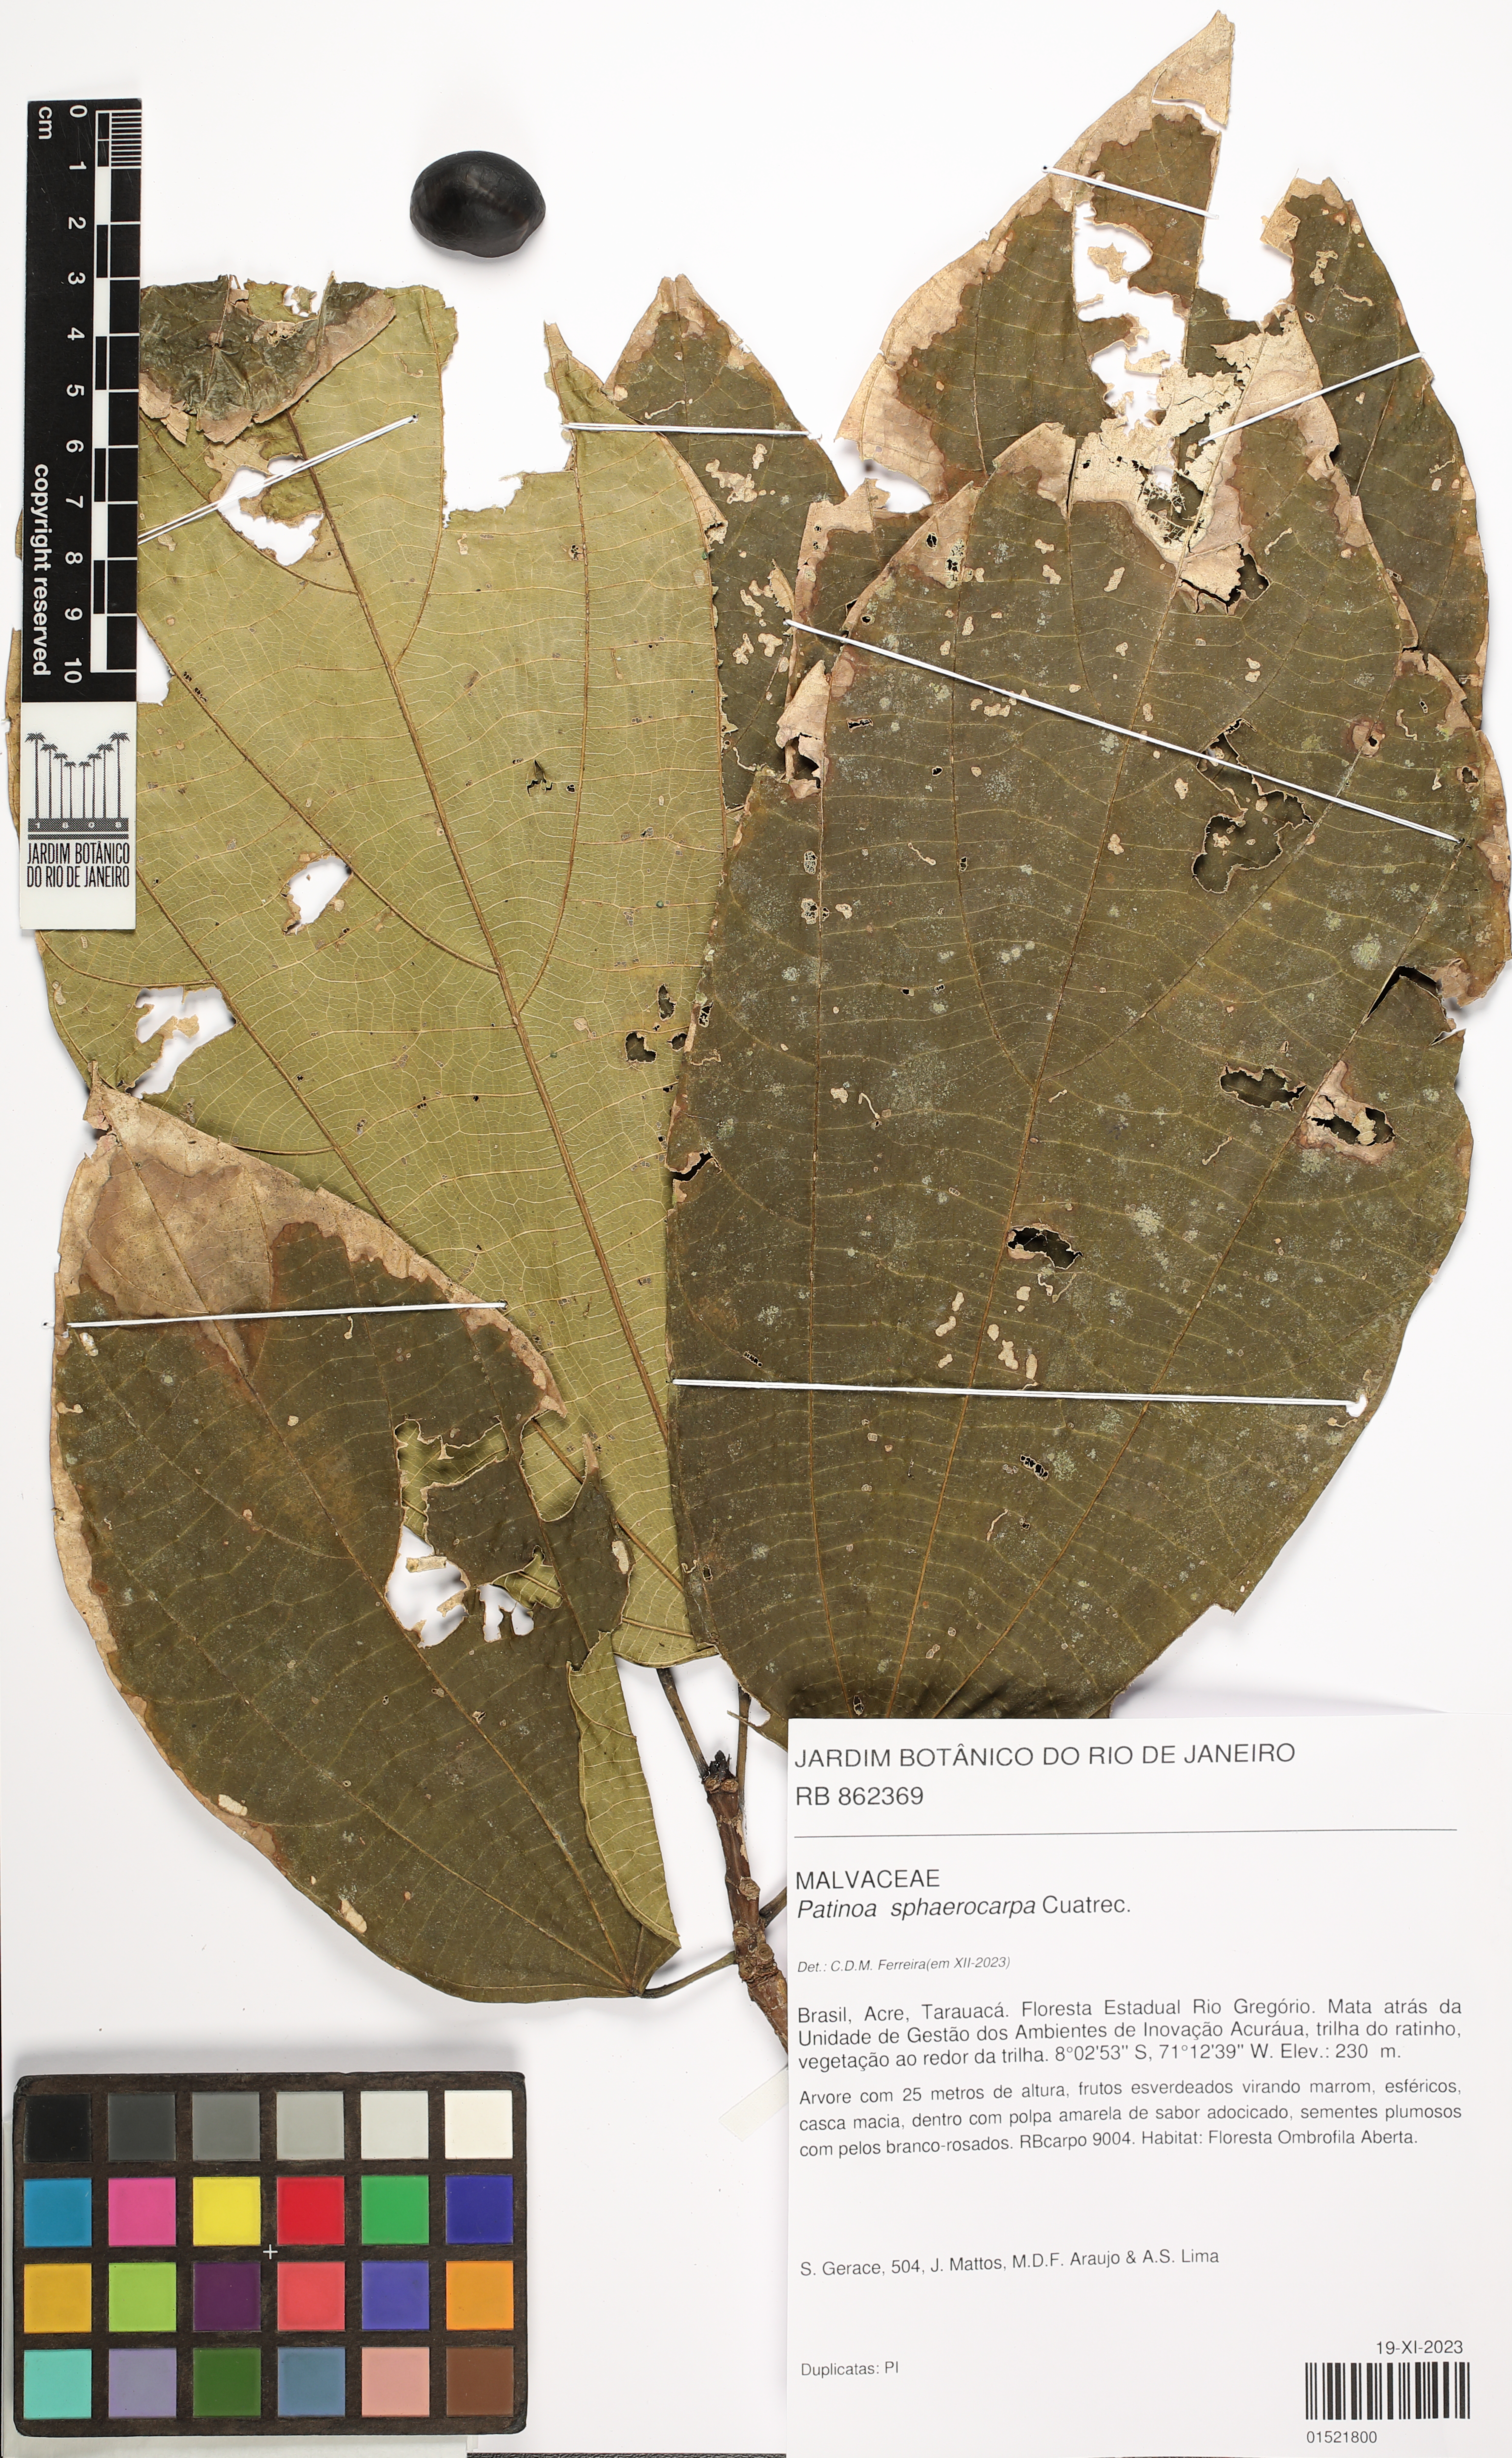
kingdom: Plantae
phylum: Tracheophyta
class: Magnoliopsida
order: Malvales
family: Malvaceae
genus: Patinoa
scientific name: Patinoa sphaerocarpa
